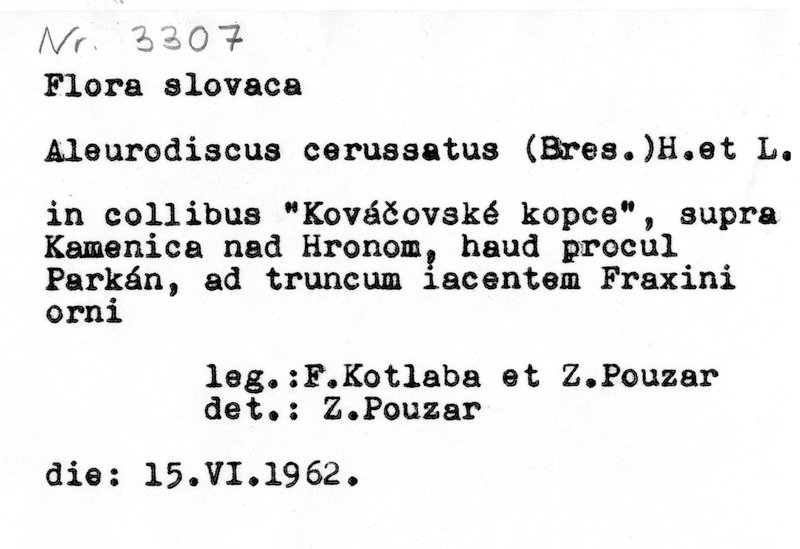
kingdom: Plantae
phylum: Tracheophyta
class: Magnoliopsida
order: Lamiales
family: Oleaceae
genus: Fraxinus
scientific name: Fraxinus ornus
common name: Manna ash
